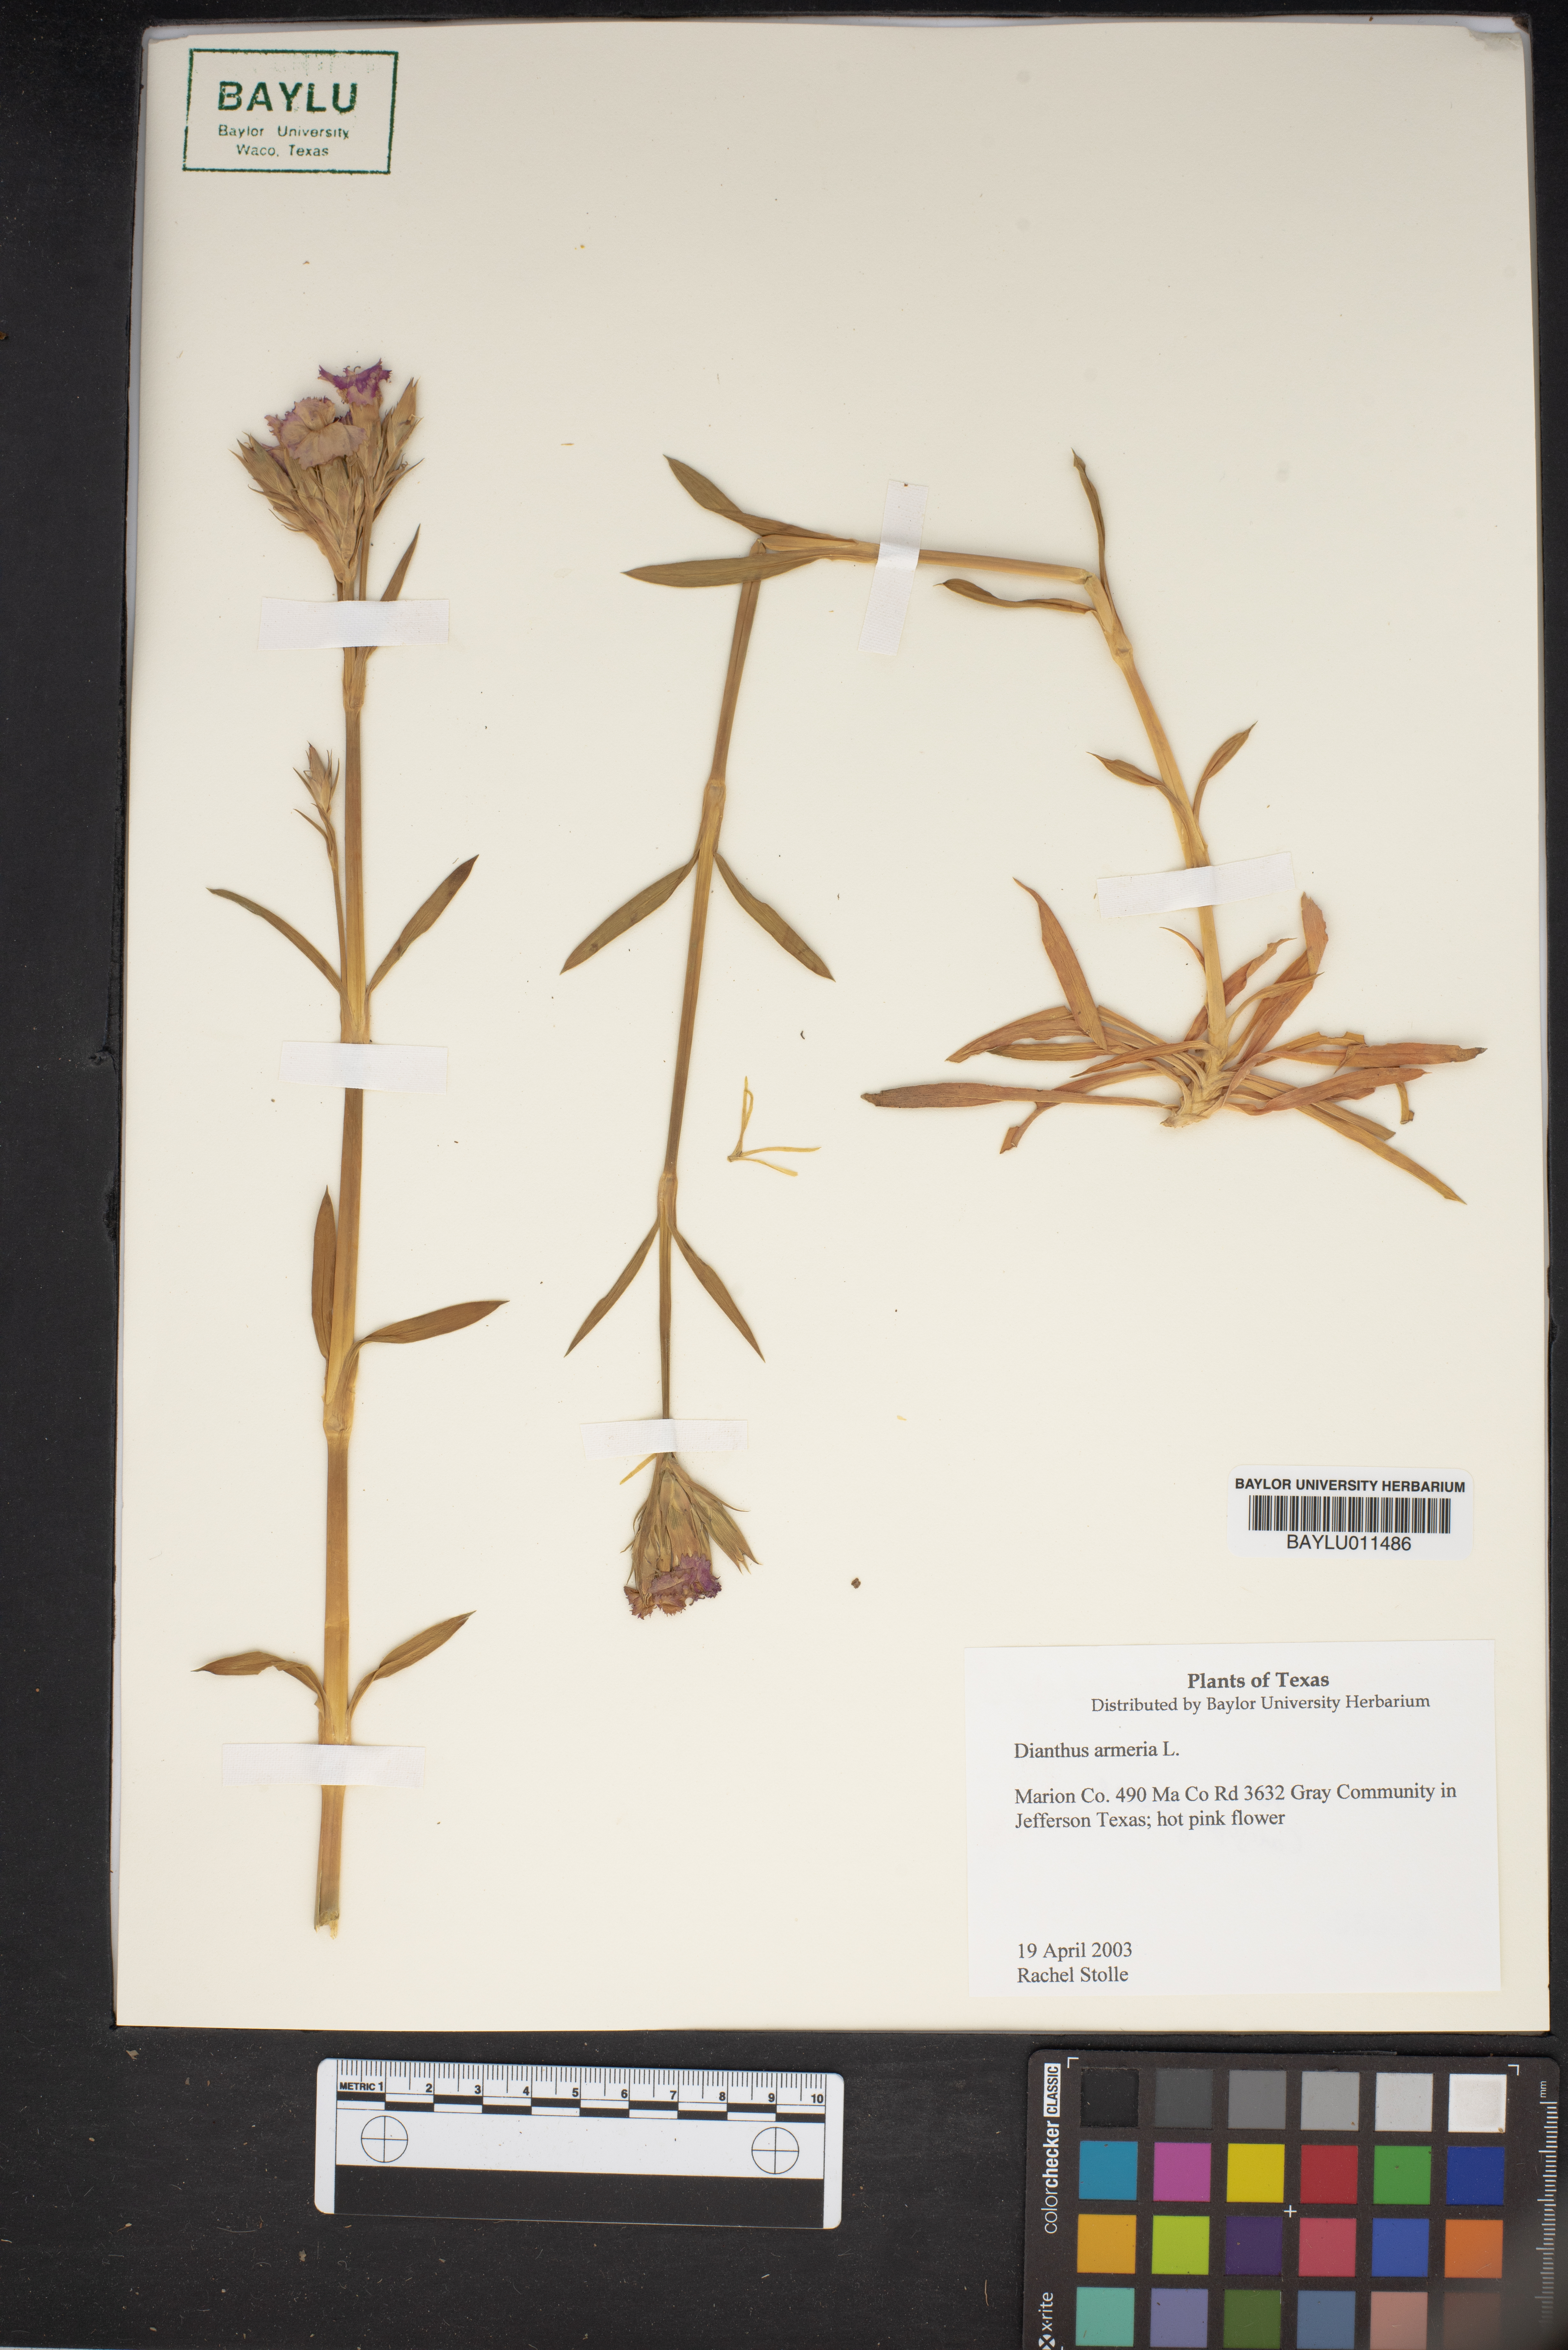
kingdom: Plantae
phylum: Tracheophyta
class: Magnoliopsida
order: Caryophyllales
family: Caryophyllaceae
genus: Dianthus
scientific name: Dianthus armeria
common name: Deptford pink
